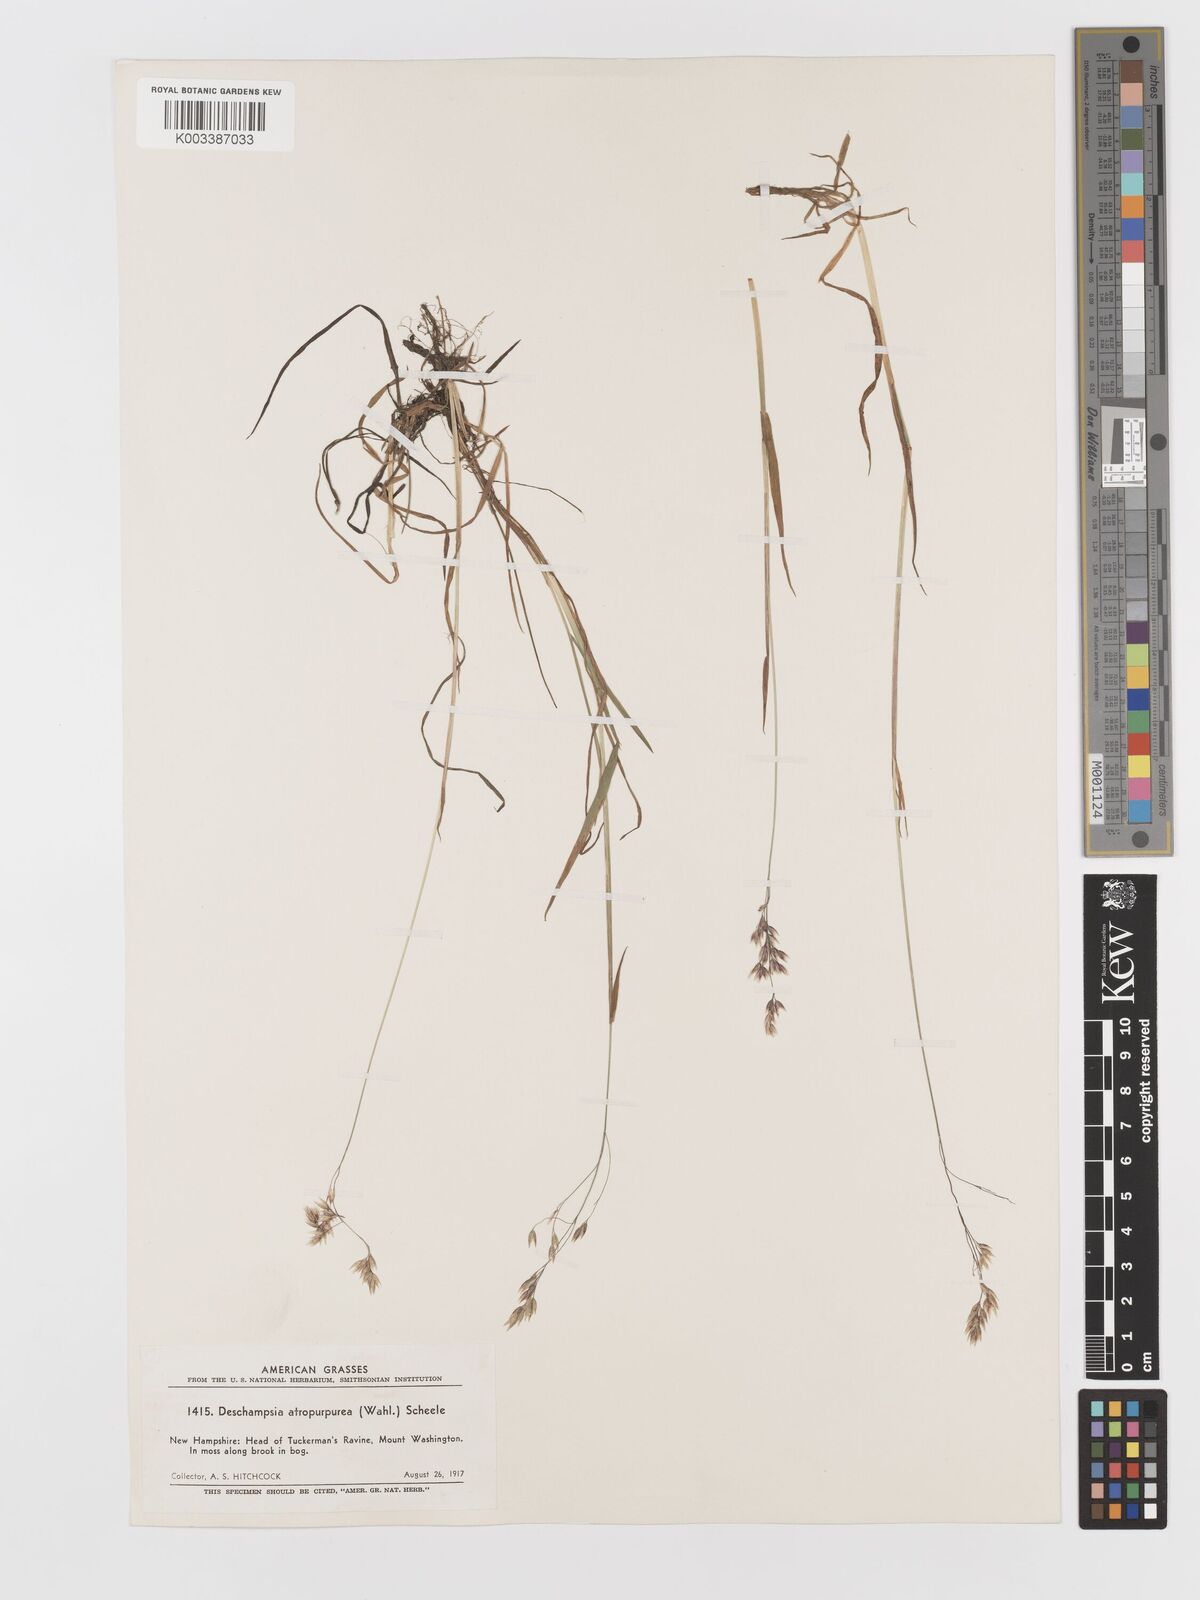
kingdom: Plantae
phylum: Tracheophyta
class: Liliopsida
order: Poales
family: Poaceae
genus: Vahlodea
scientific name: Vahlodea atropurpurea
